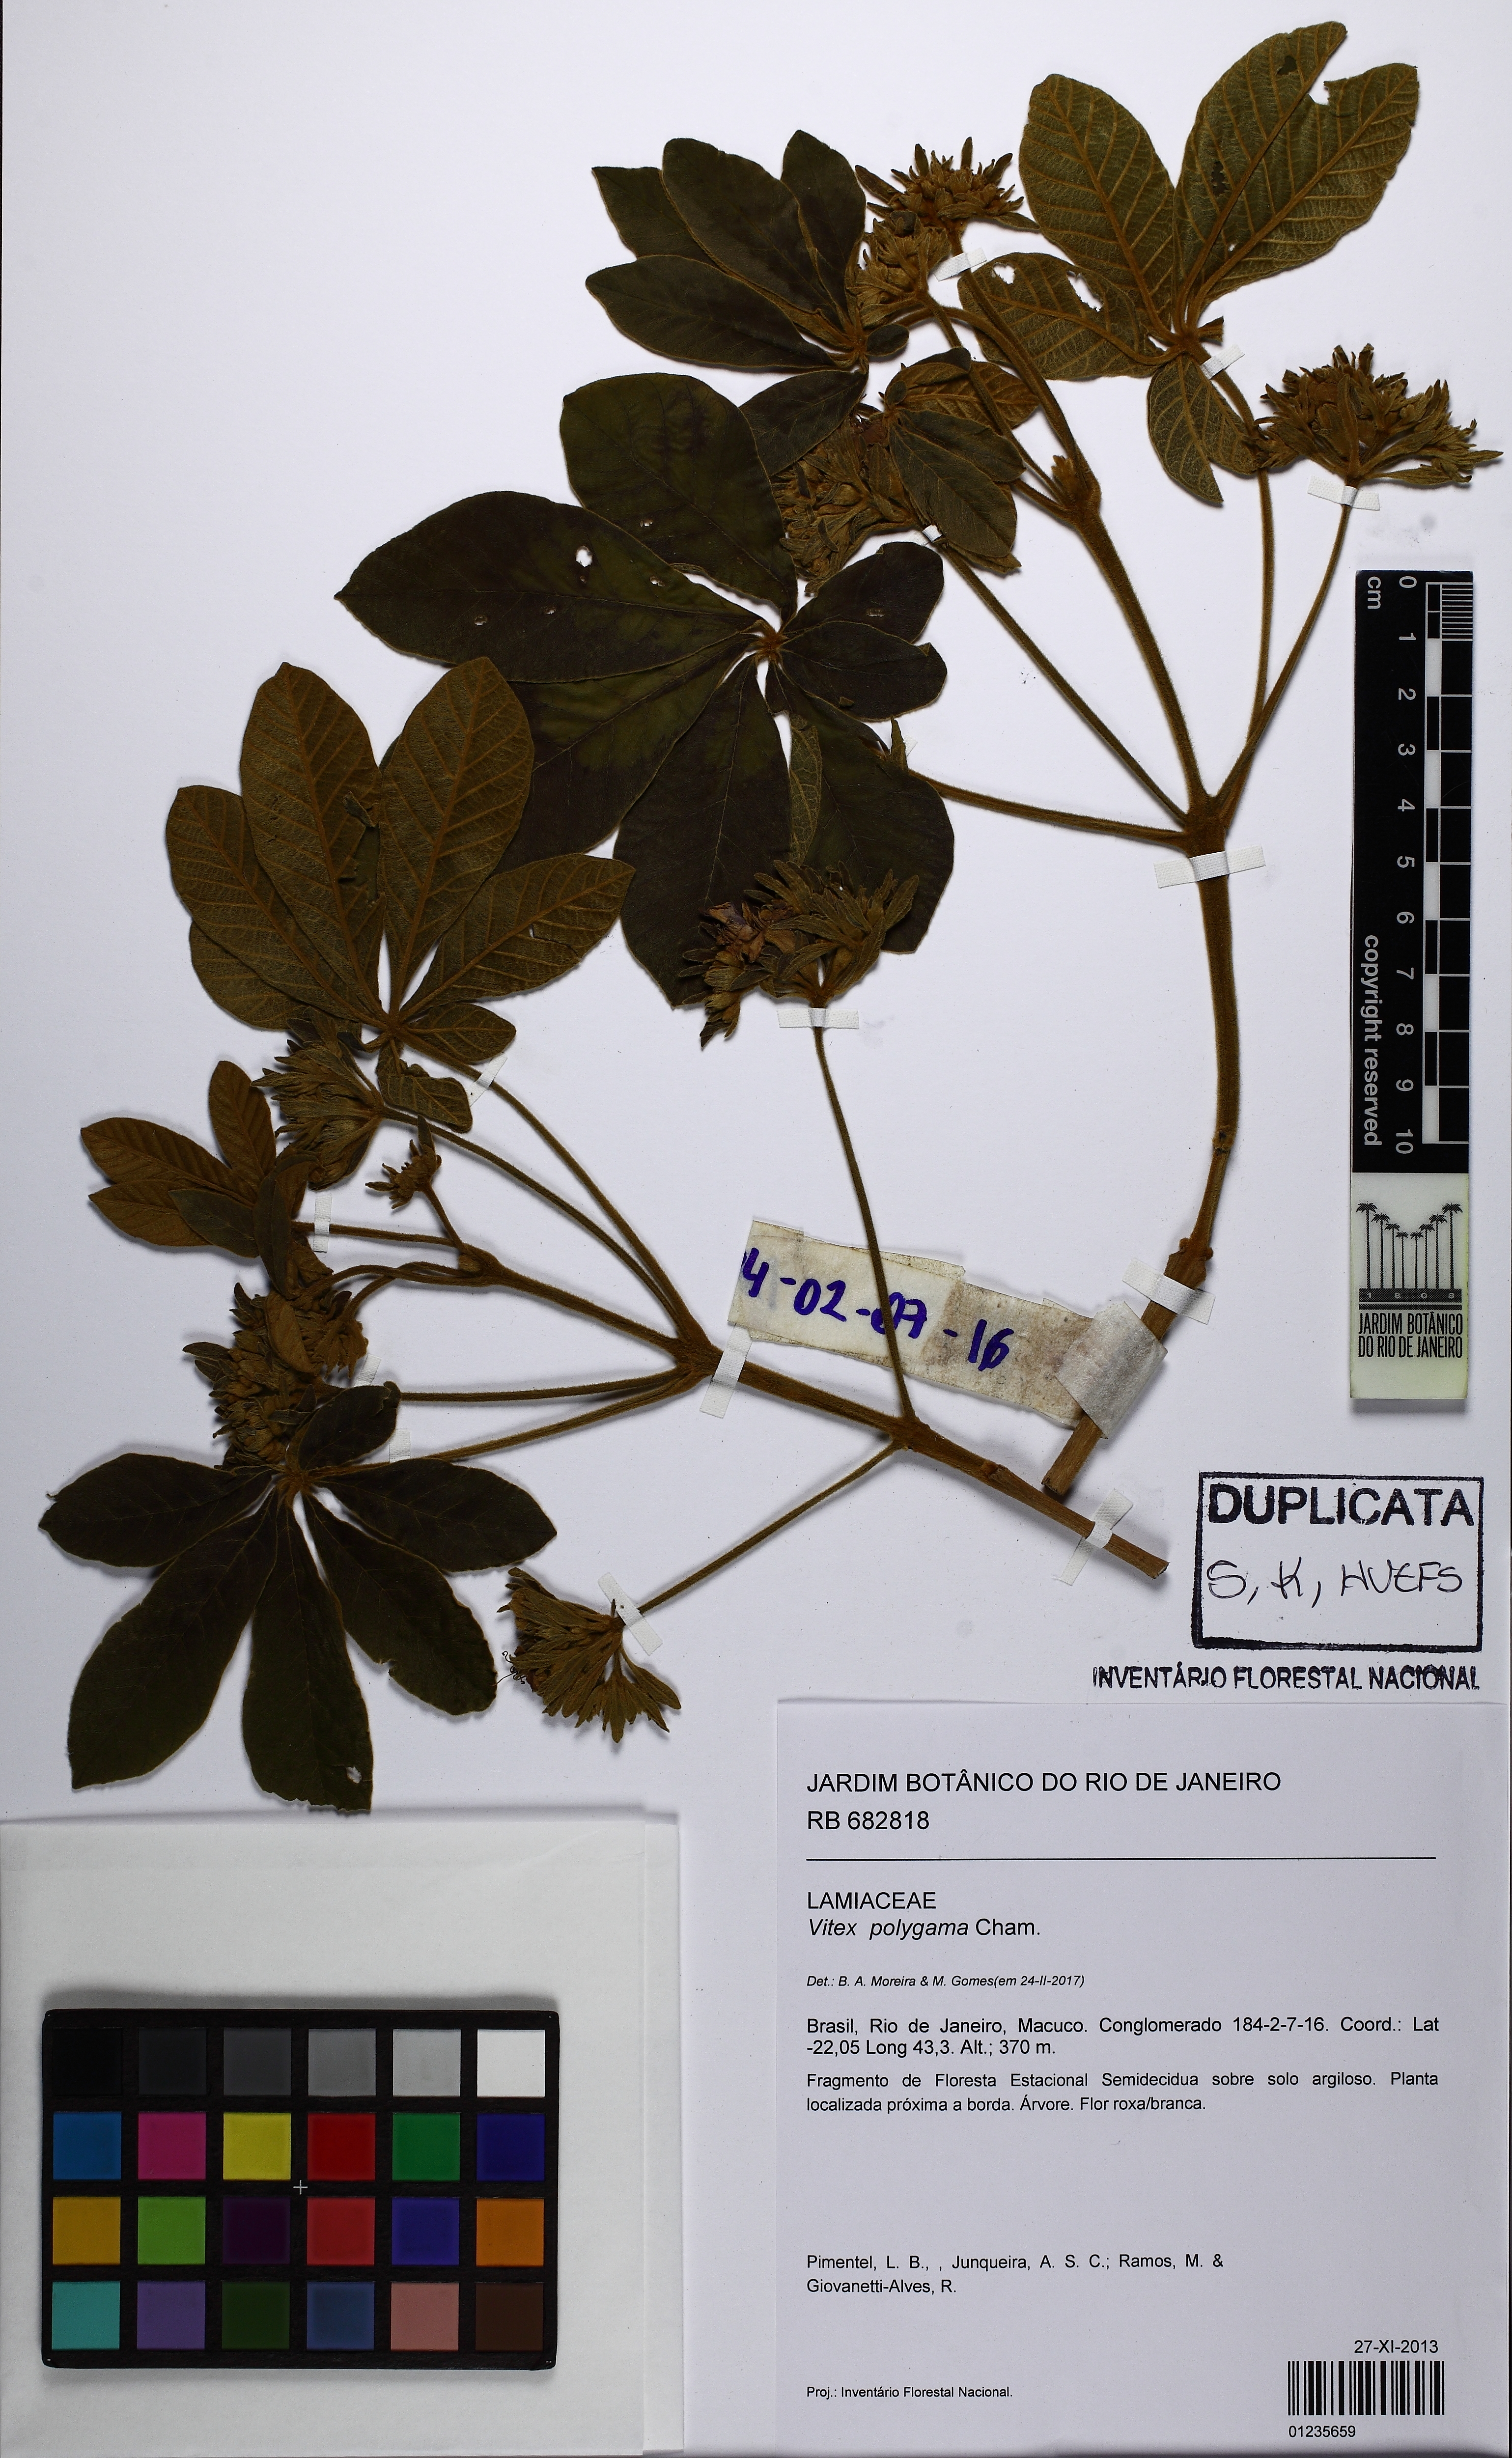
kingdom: Plantae
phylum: Tracheophyta
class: Magnoliopsida
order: Lamiales
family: Lamiaceae
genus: Vitex
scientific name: Vitex polygama
